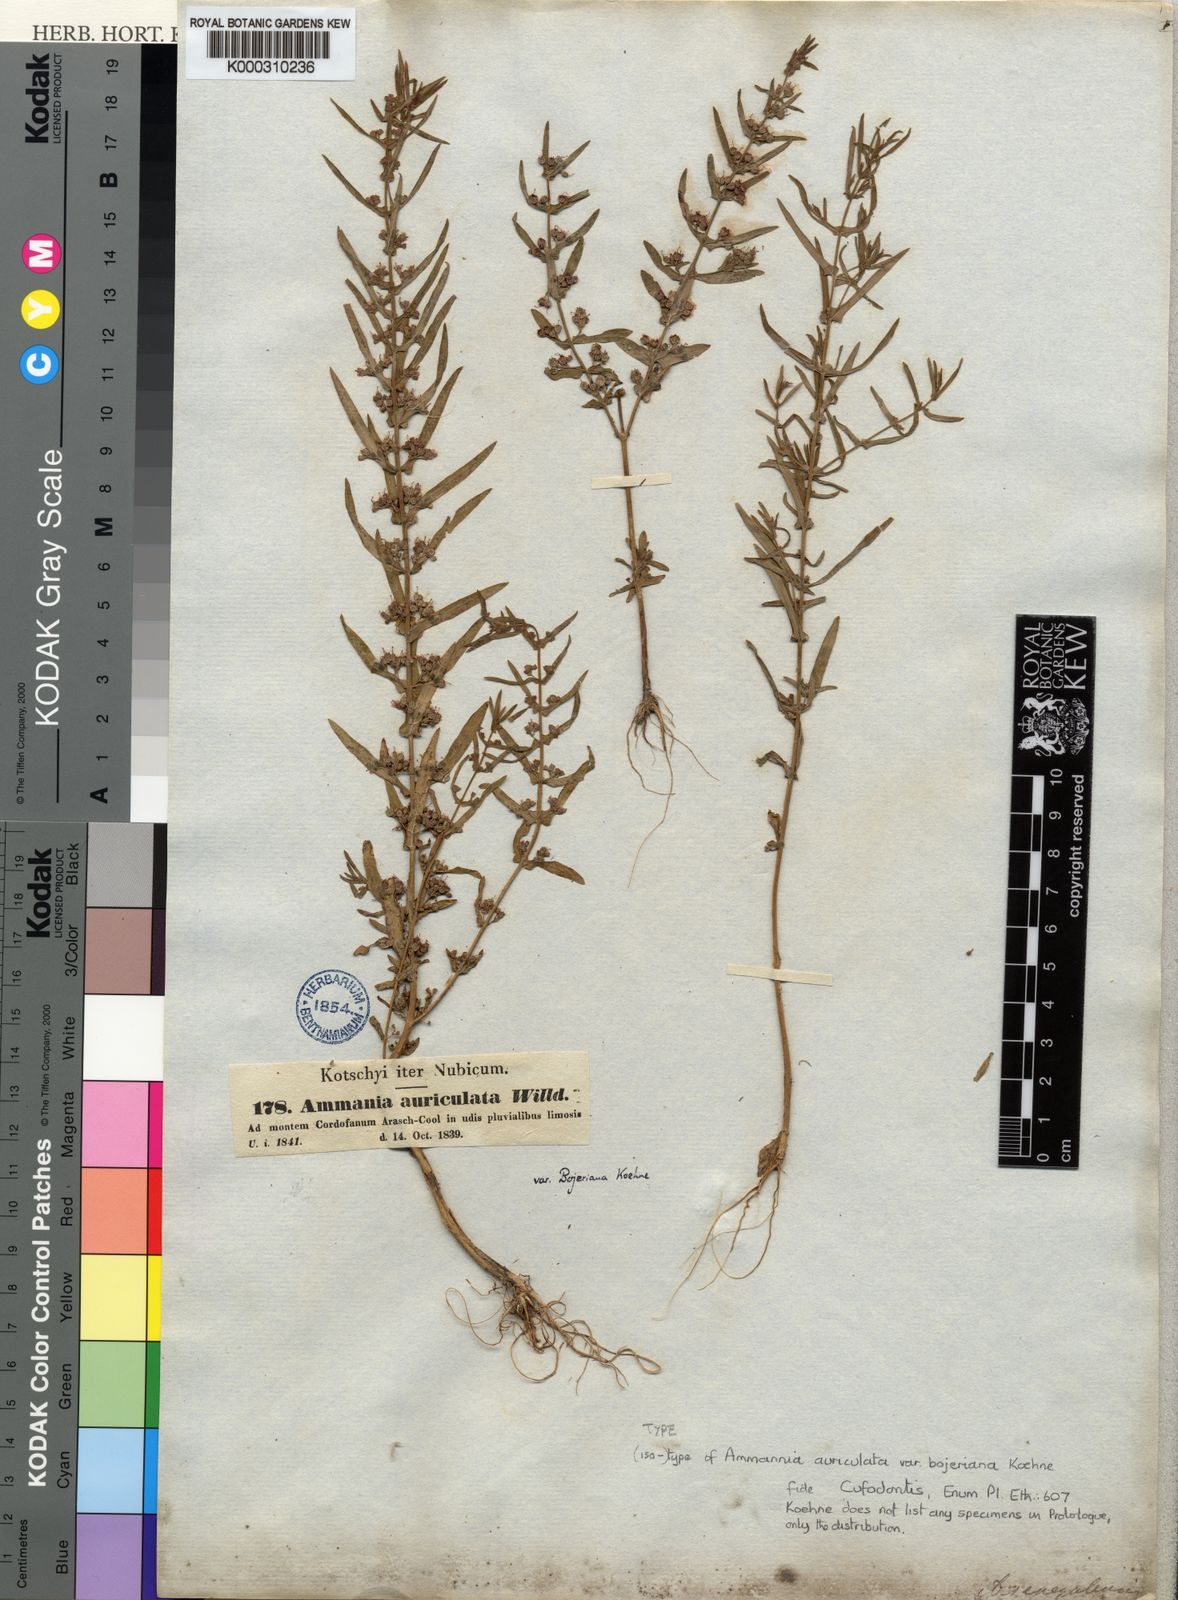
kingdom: Plantae
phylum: Tracheophyta
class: Magnoliopsida
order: Myrtales
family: Lythraceae
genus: Ammannia
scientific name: Ammannia auriculata
